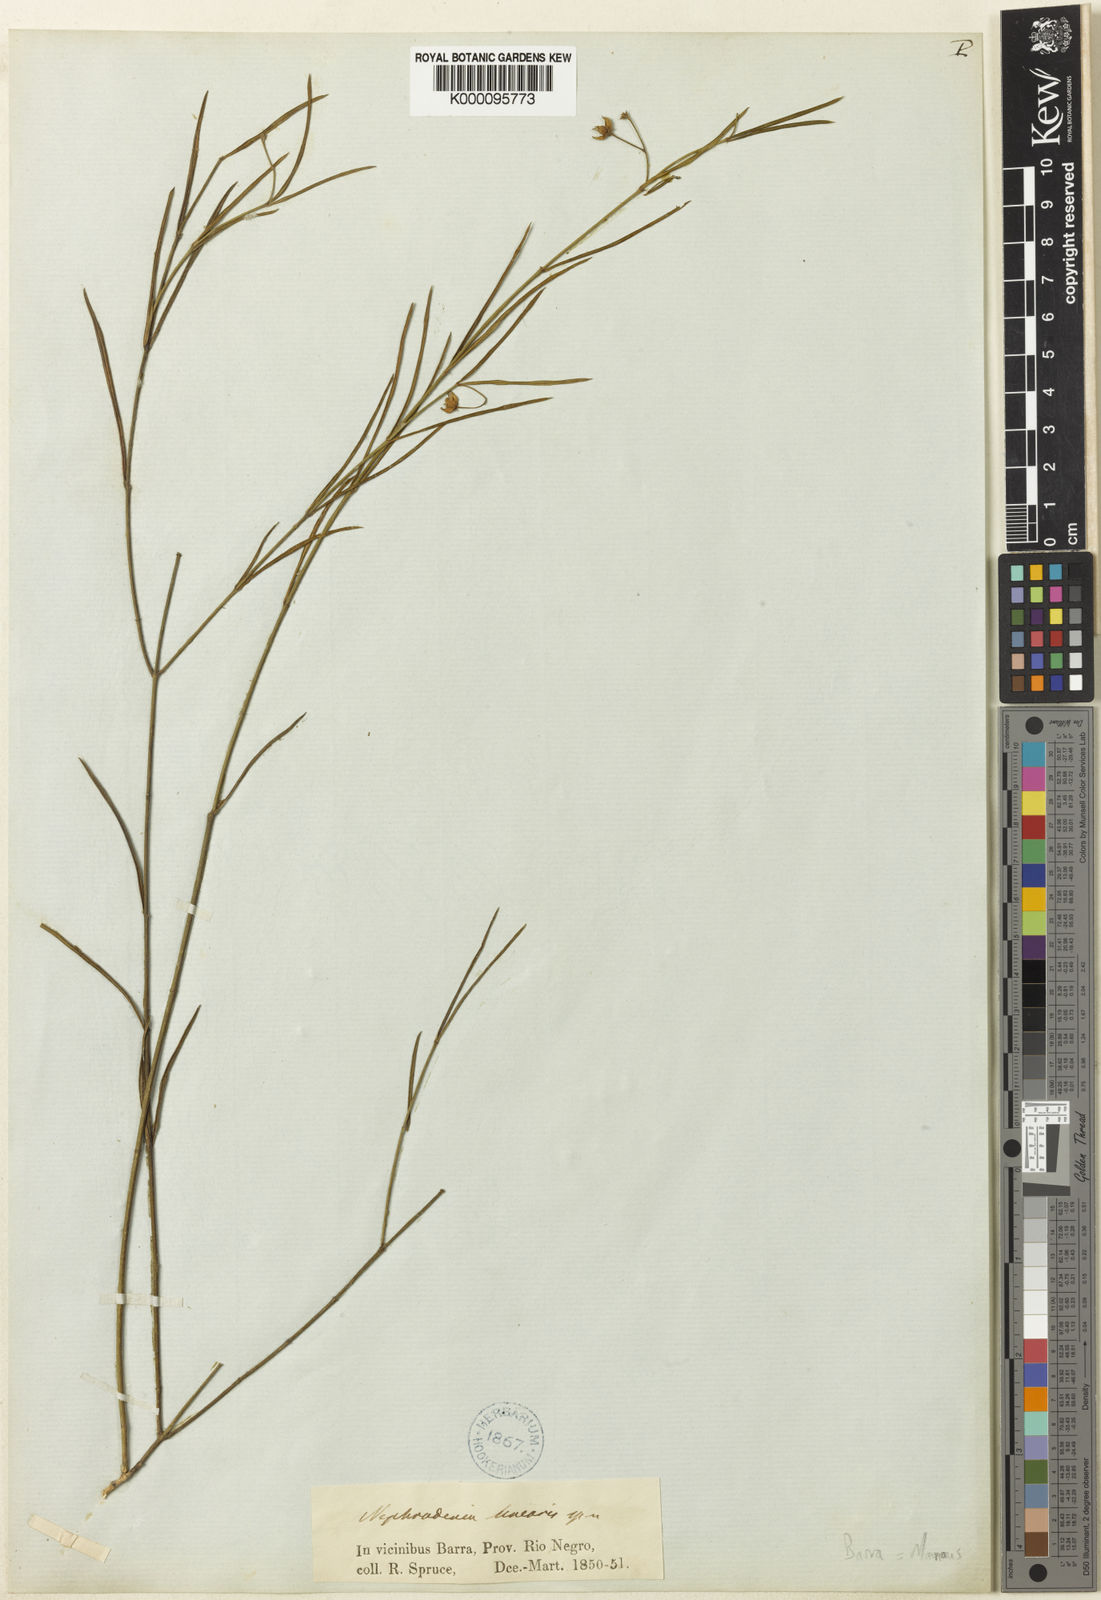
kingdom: Plantae
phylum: Tracheophyta
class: Magnoliopsida
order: Gentianales
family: Apocynaceae
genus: Blepharodon
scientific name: Blepharodon lineare
